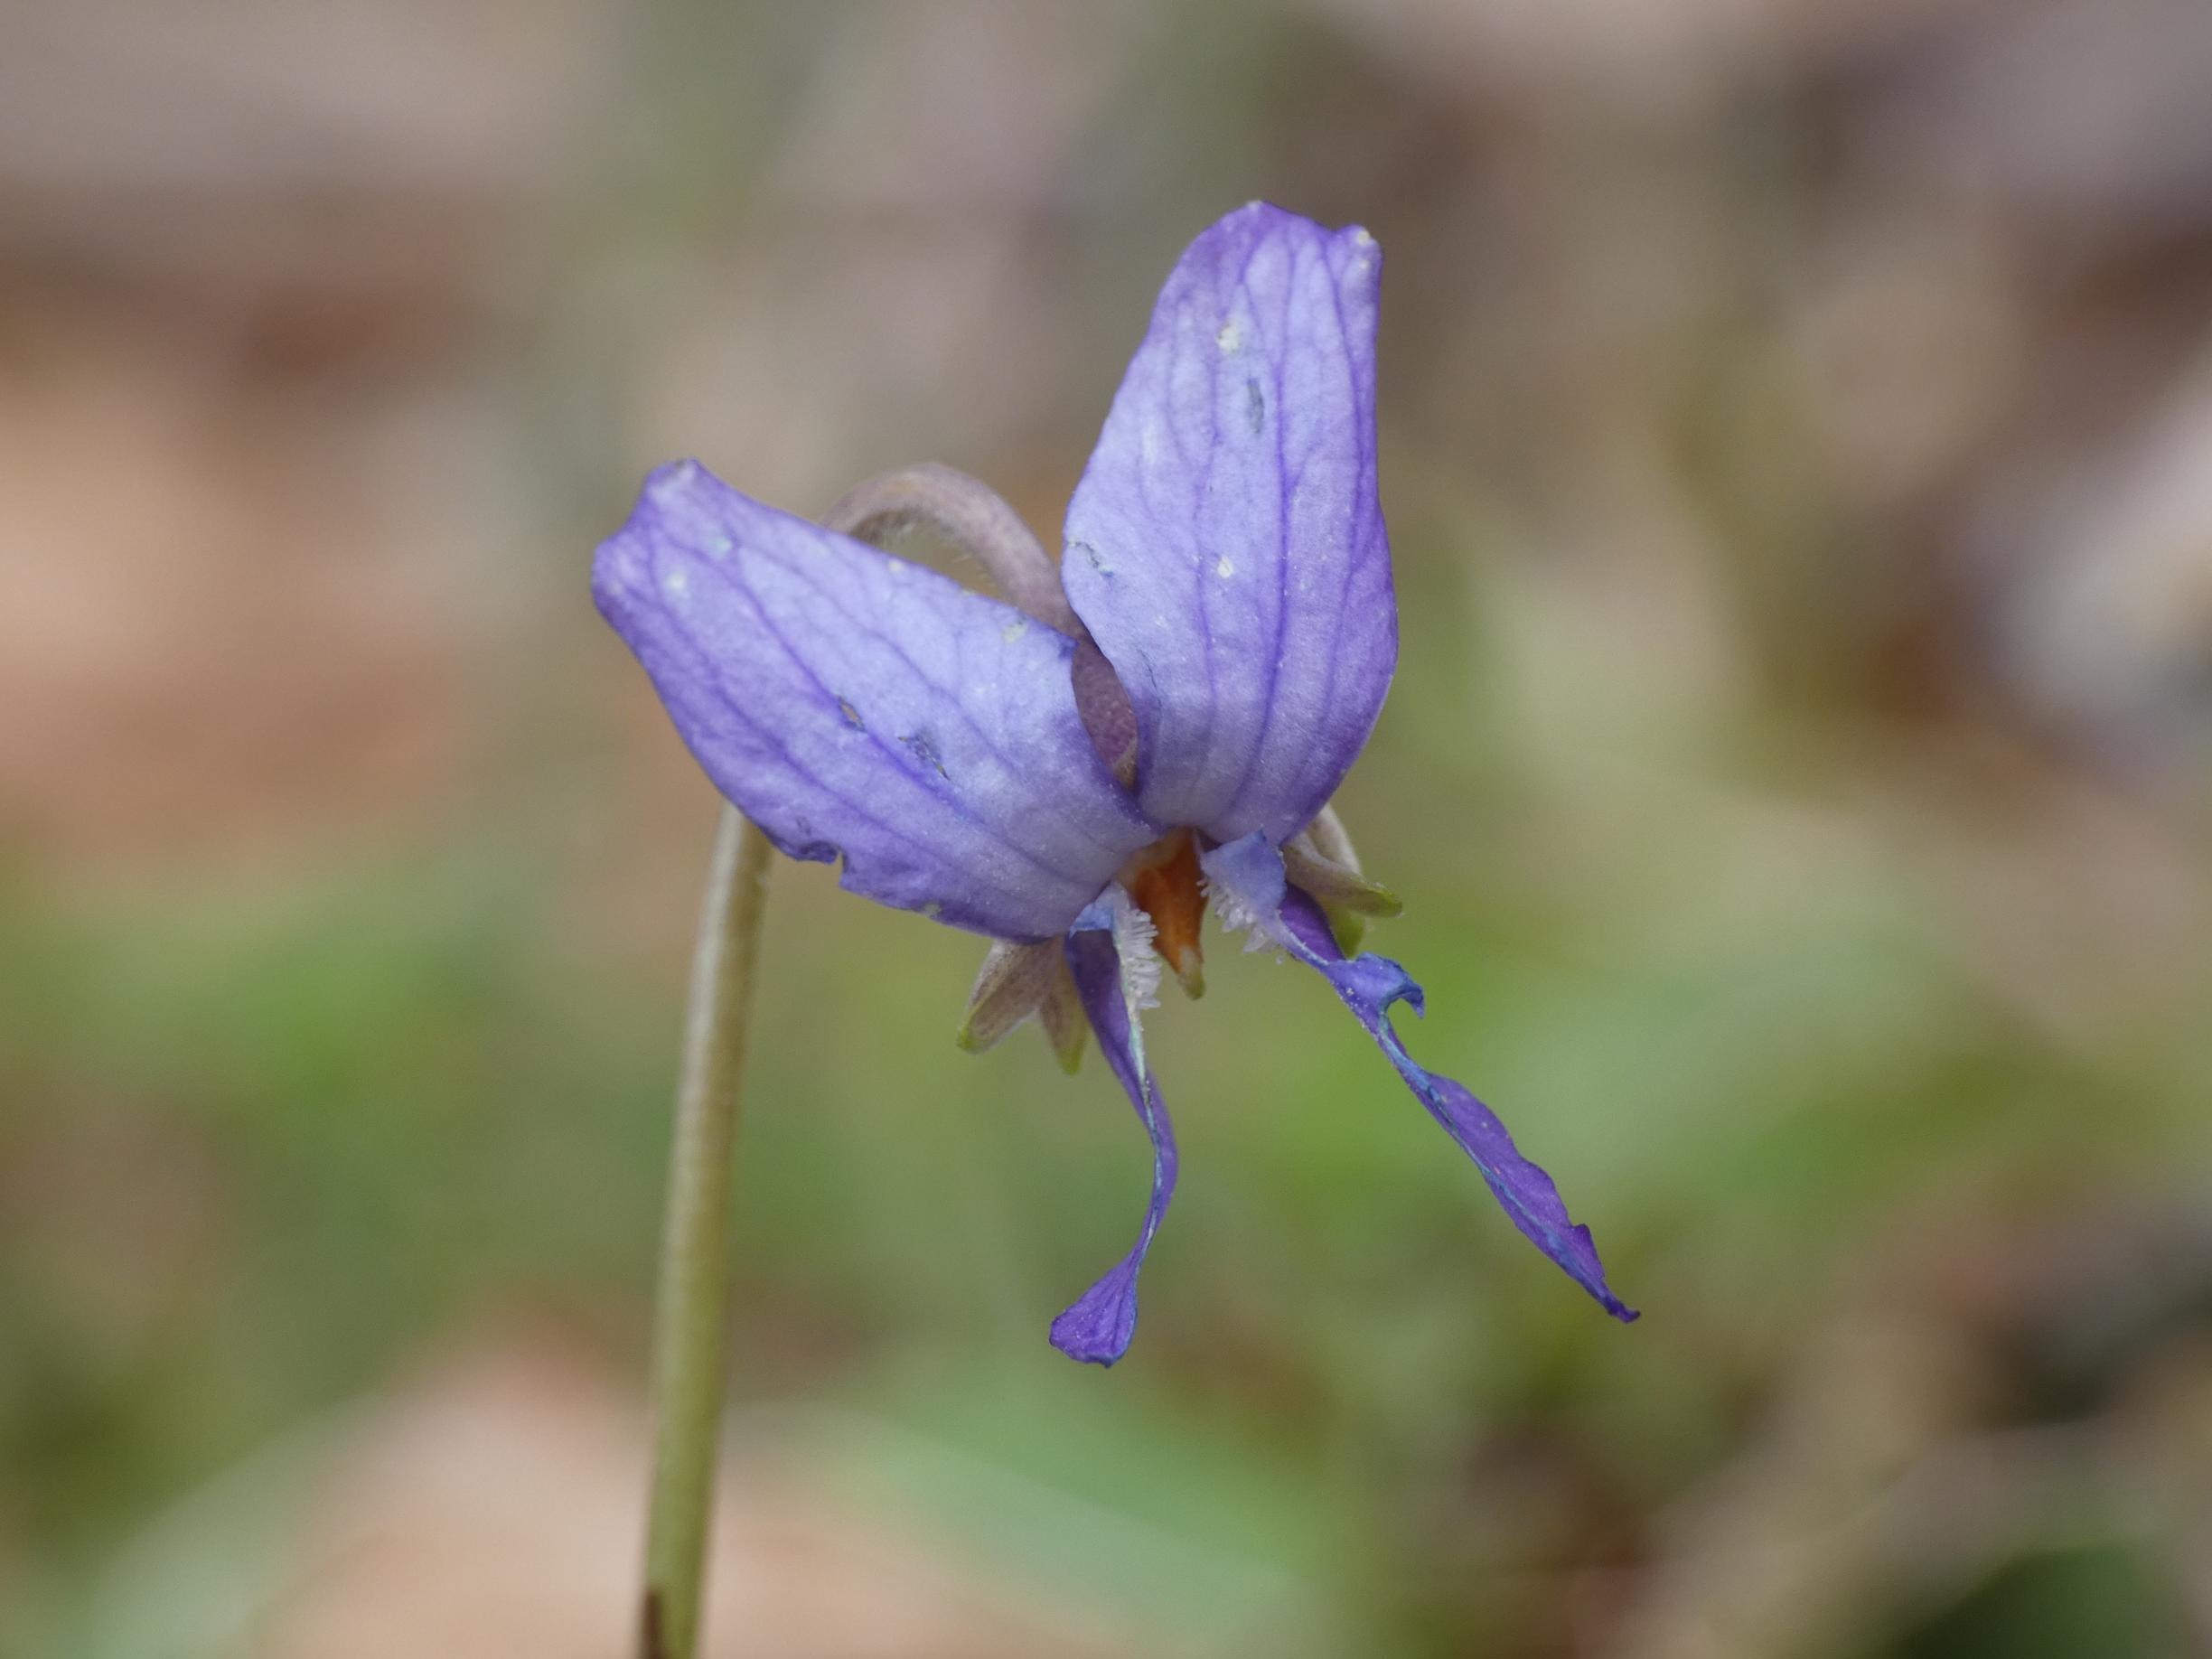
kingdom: Plantae
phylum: Tracheophyta
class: Magnoliopsida
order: Malpighiales
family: Violaceae
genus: Viola
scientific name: Viola odorata
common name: Marts-viol
